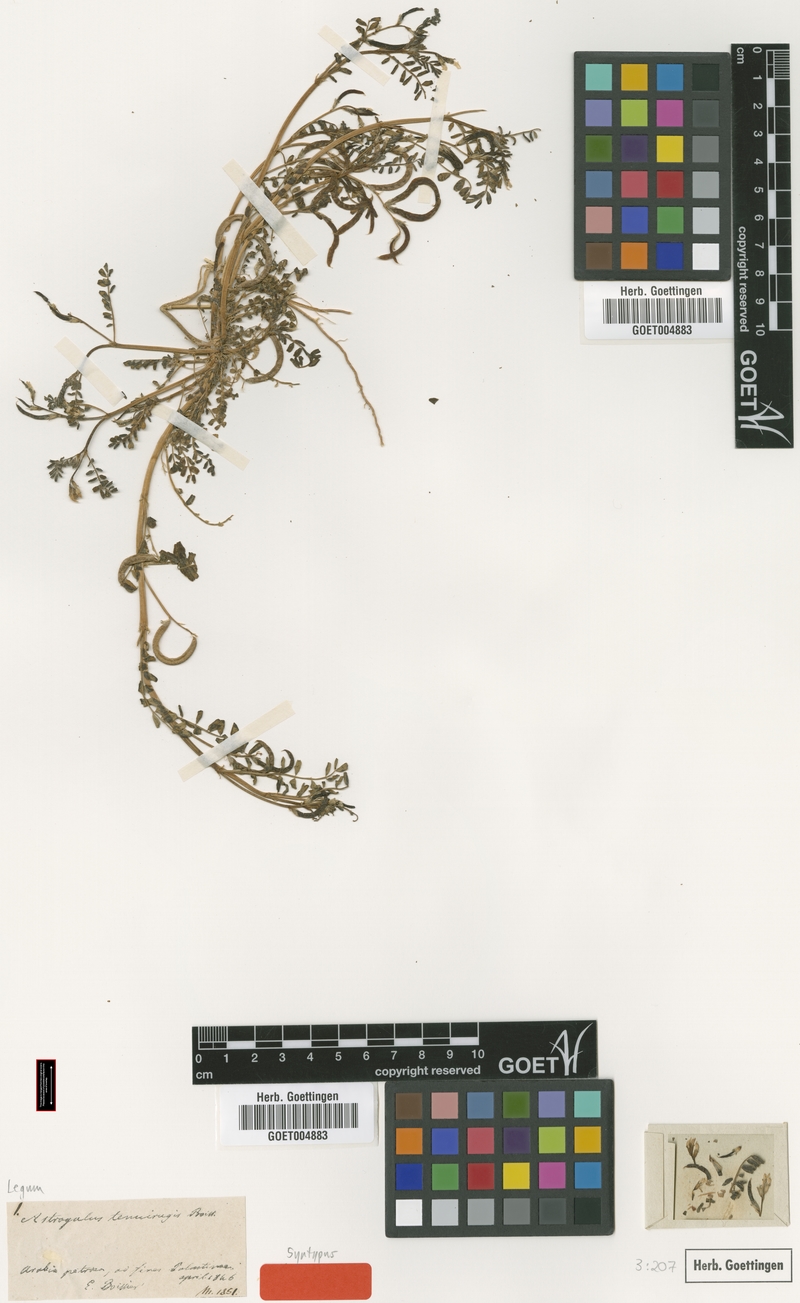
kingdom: Plantae
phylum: Tracheophyta
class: Magnoliopsida
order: Fabales
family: Fabaceae
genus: Astragalus
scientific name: Astragalus crenatus
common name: Milk vetch
